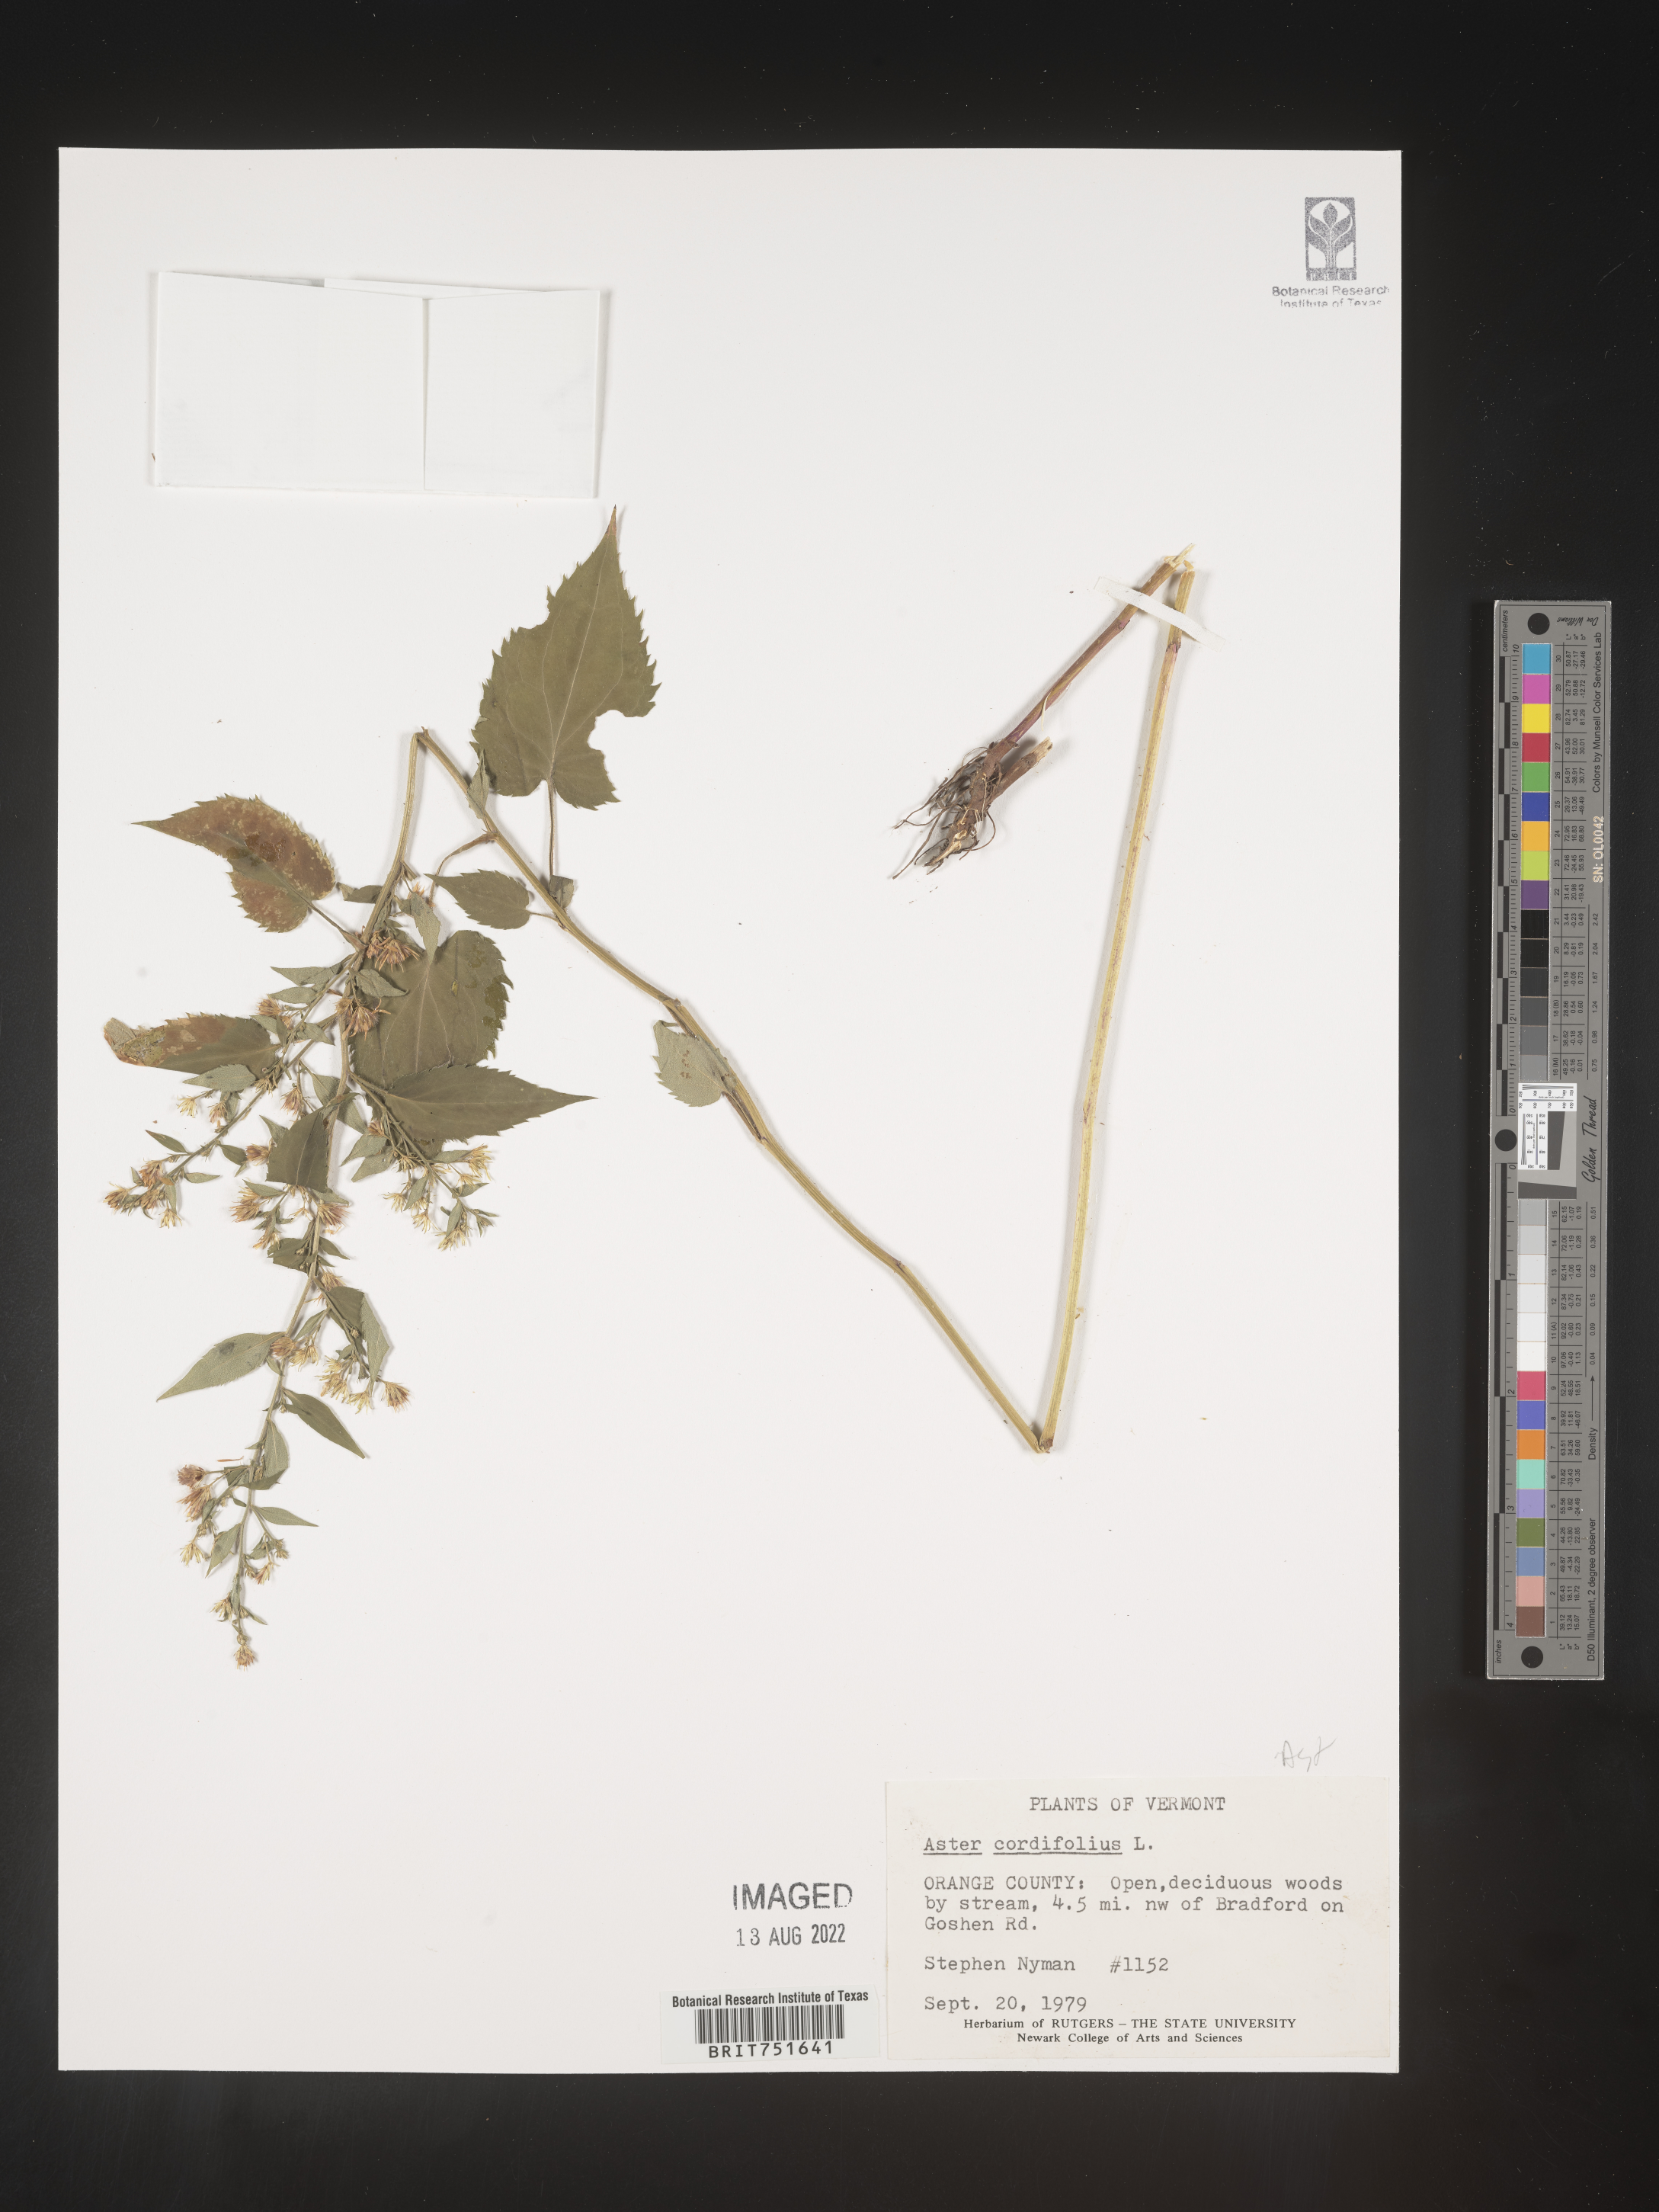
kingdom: Plantae
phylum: Tracheophyta
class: Magnoliopsida
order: Asterales
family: Asteraceae
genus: Symphyotrichum
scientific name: Symphyotrichum cordifolium
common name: Beeweed
